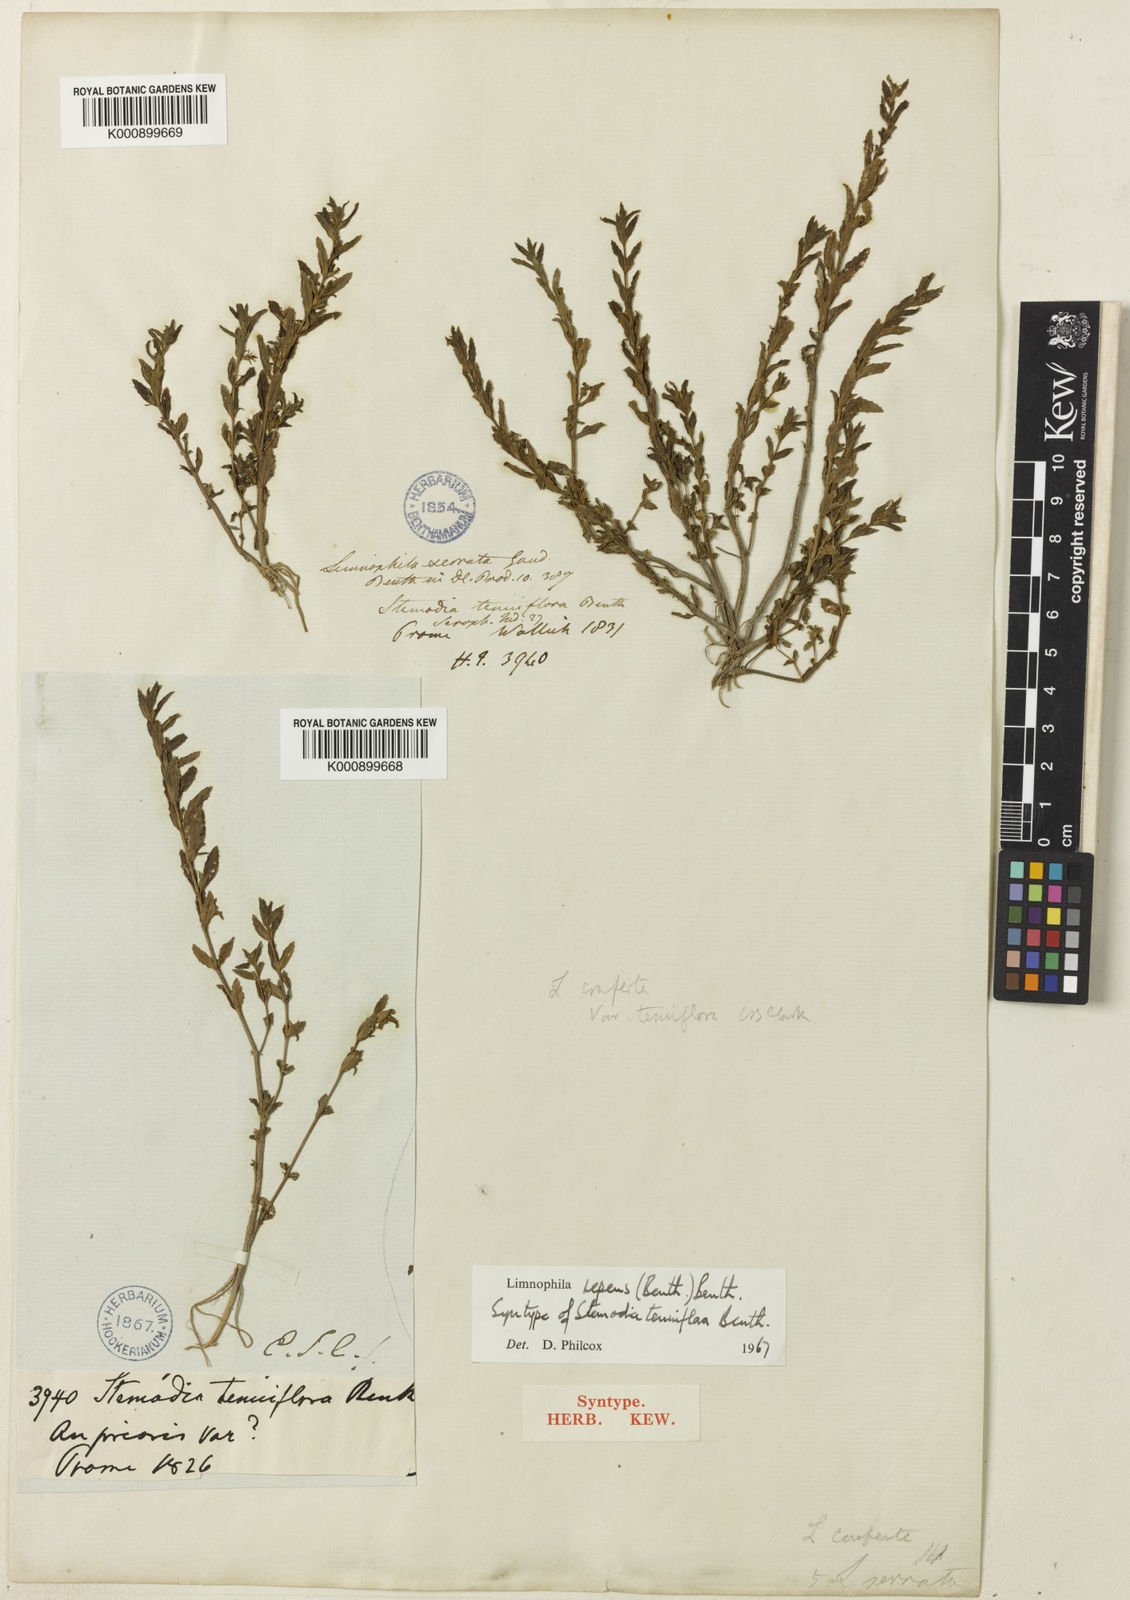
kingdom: Plantae
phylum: Tracheophyta
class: Magnoliopsida
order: Lamiales
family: Plantaginaceae
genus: Limnophila
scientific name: Limnophila repens
